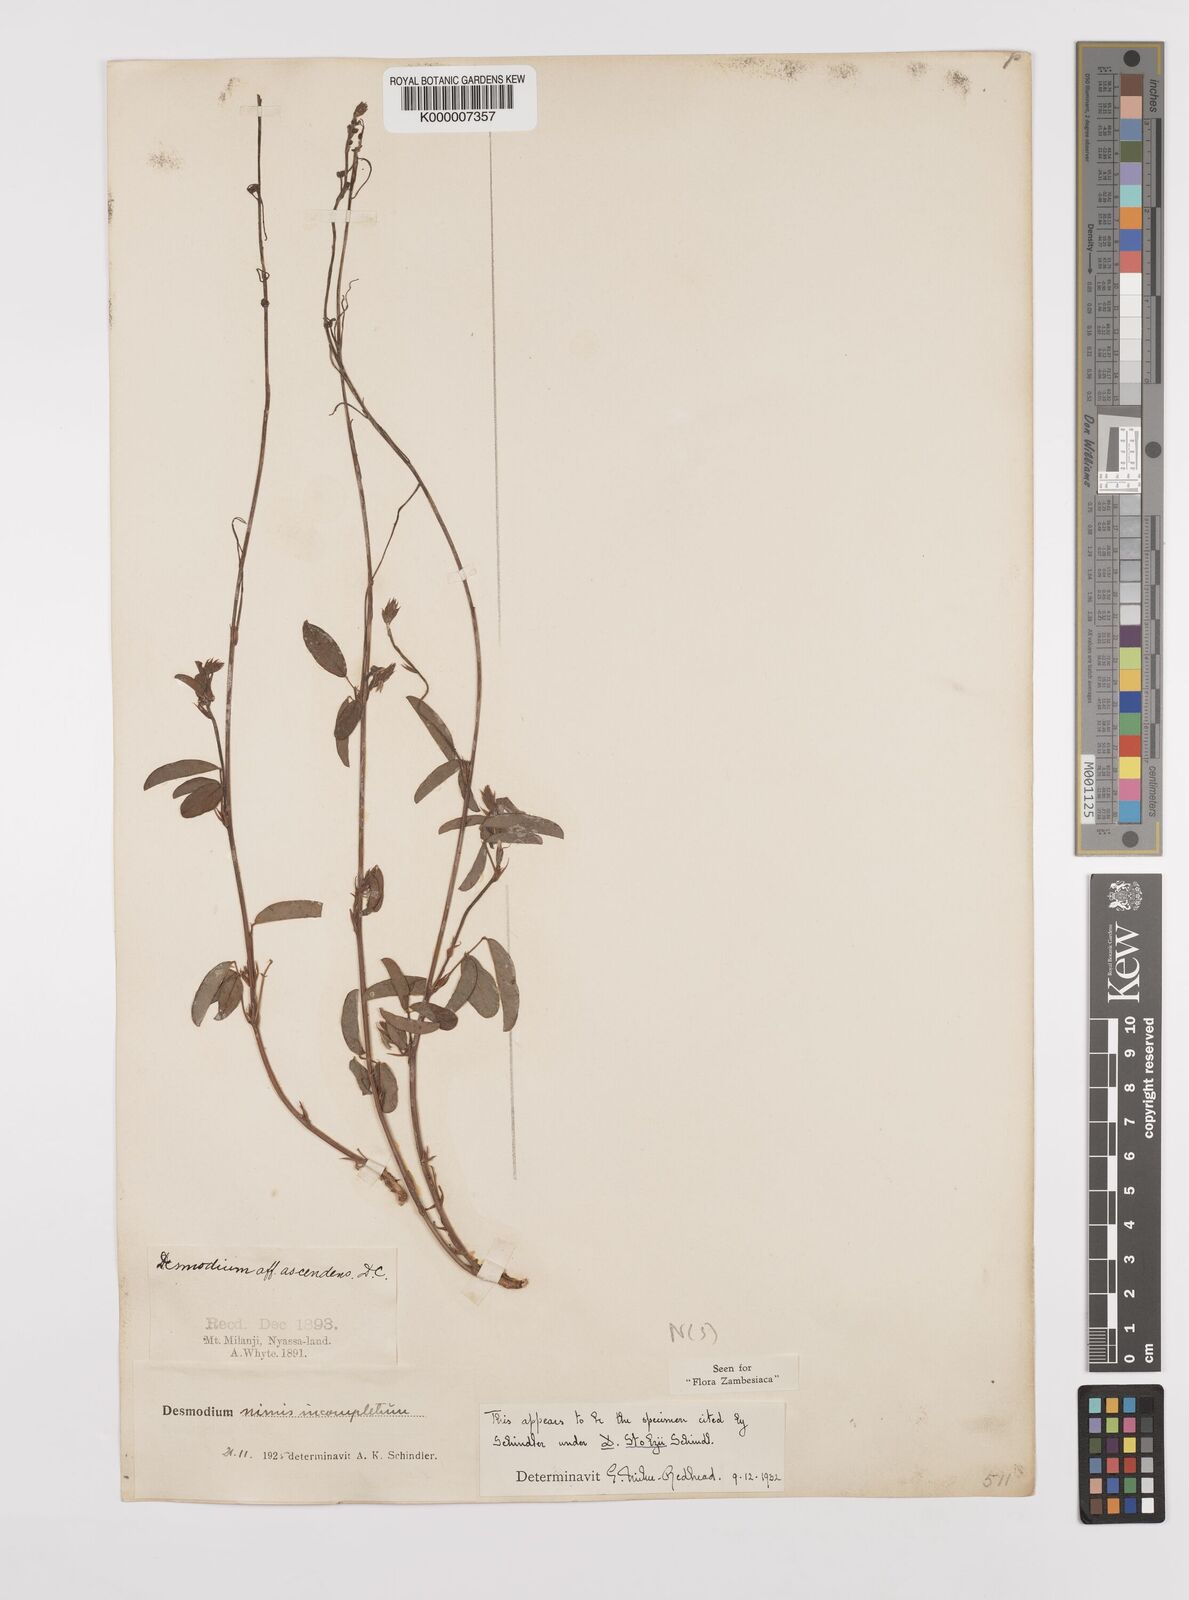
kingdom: Plantae
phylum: Tracheophyta
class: Magnoliopsida
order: Fabales
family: Fabaceae
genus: Grona
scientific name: Grona stolzii
